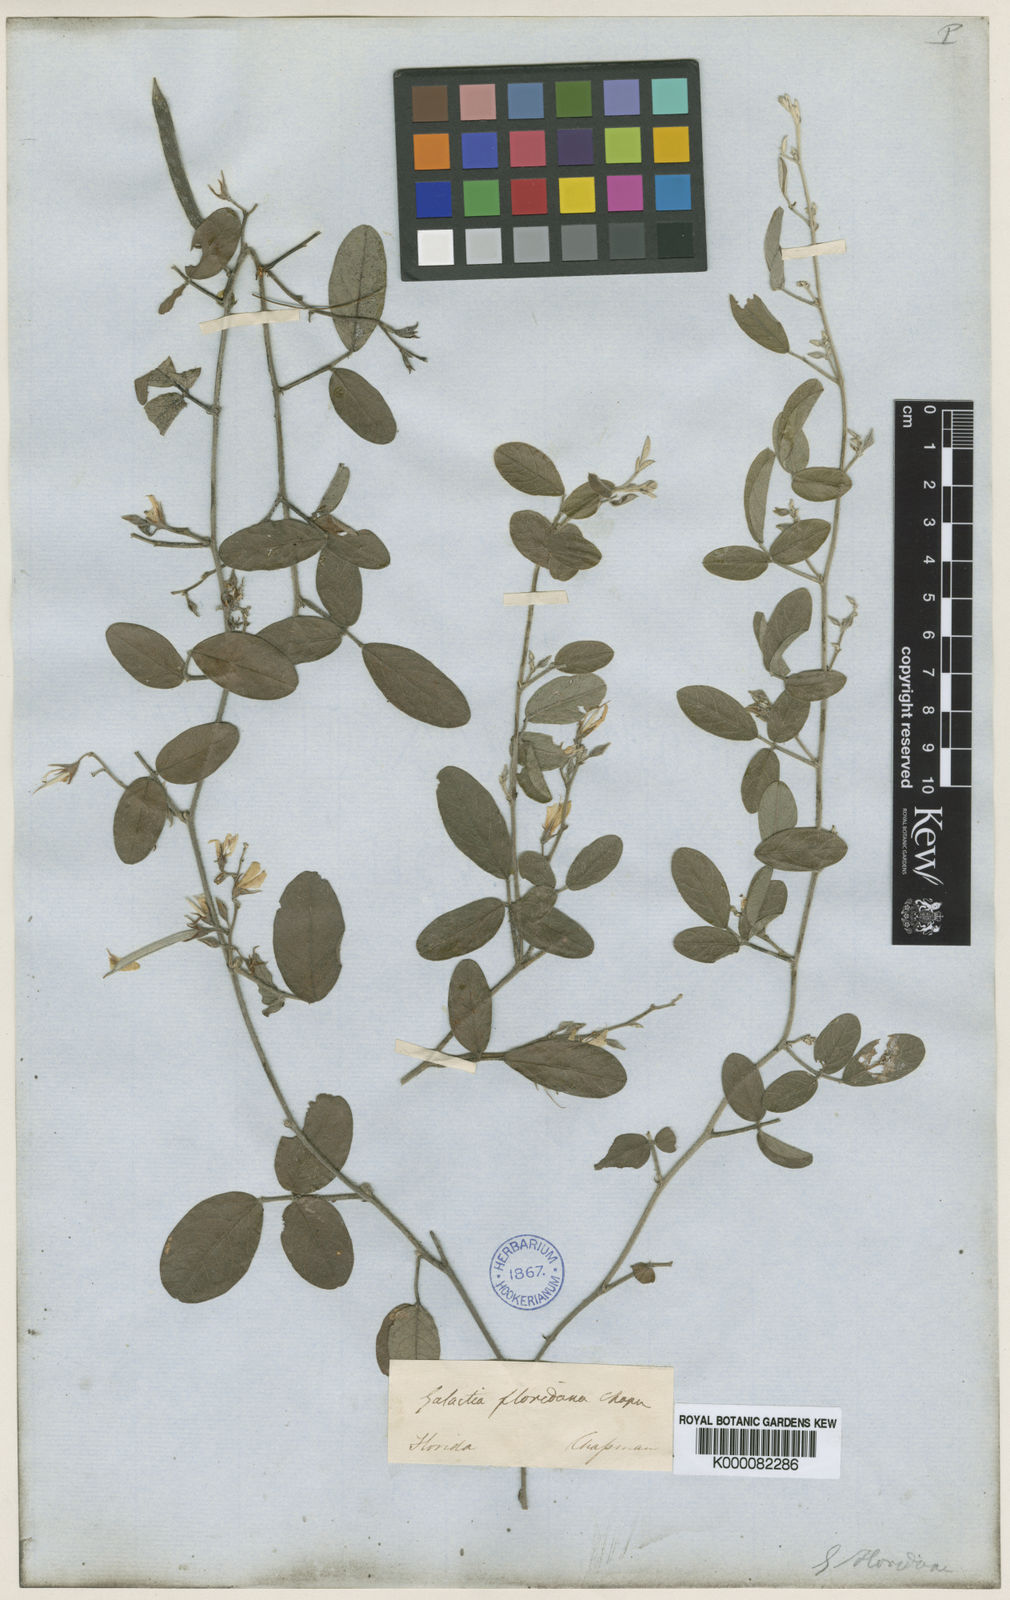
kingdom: Plantae
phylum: Tracheophyta
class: Magnoliopsida
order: Fabales
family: Fabaceae
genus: Galactia
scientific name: Galactia microphylla
